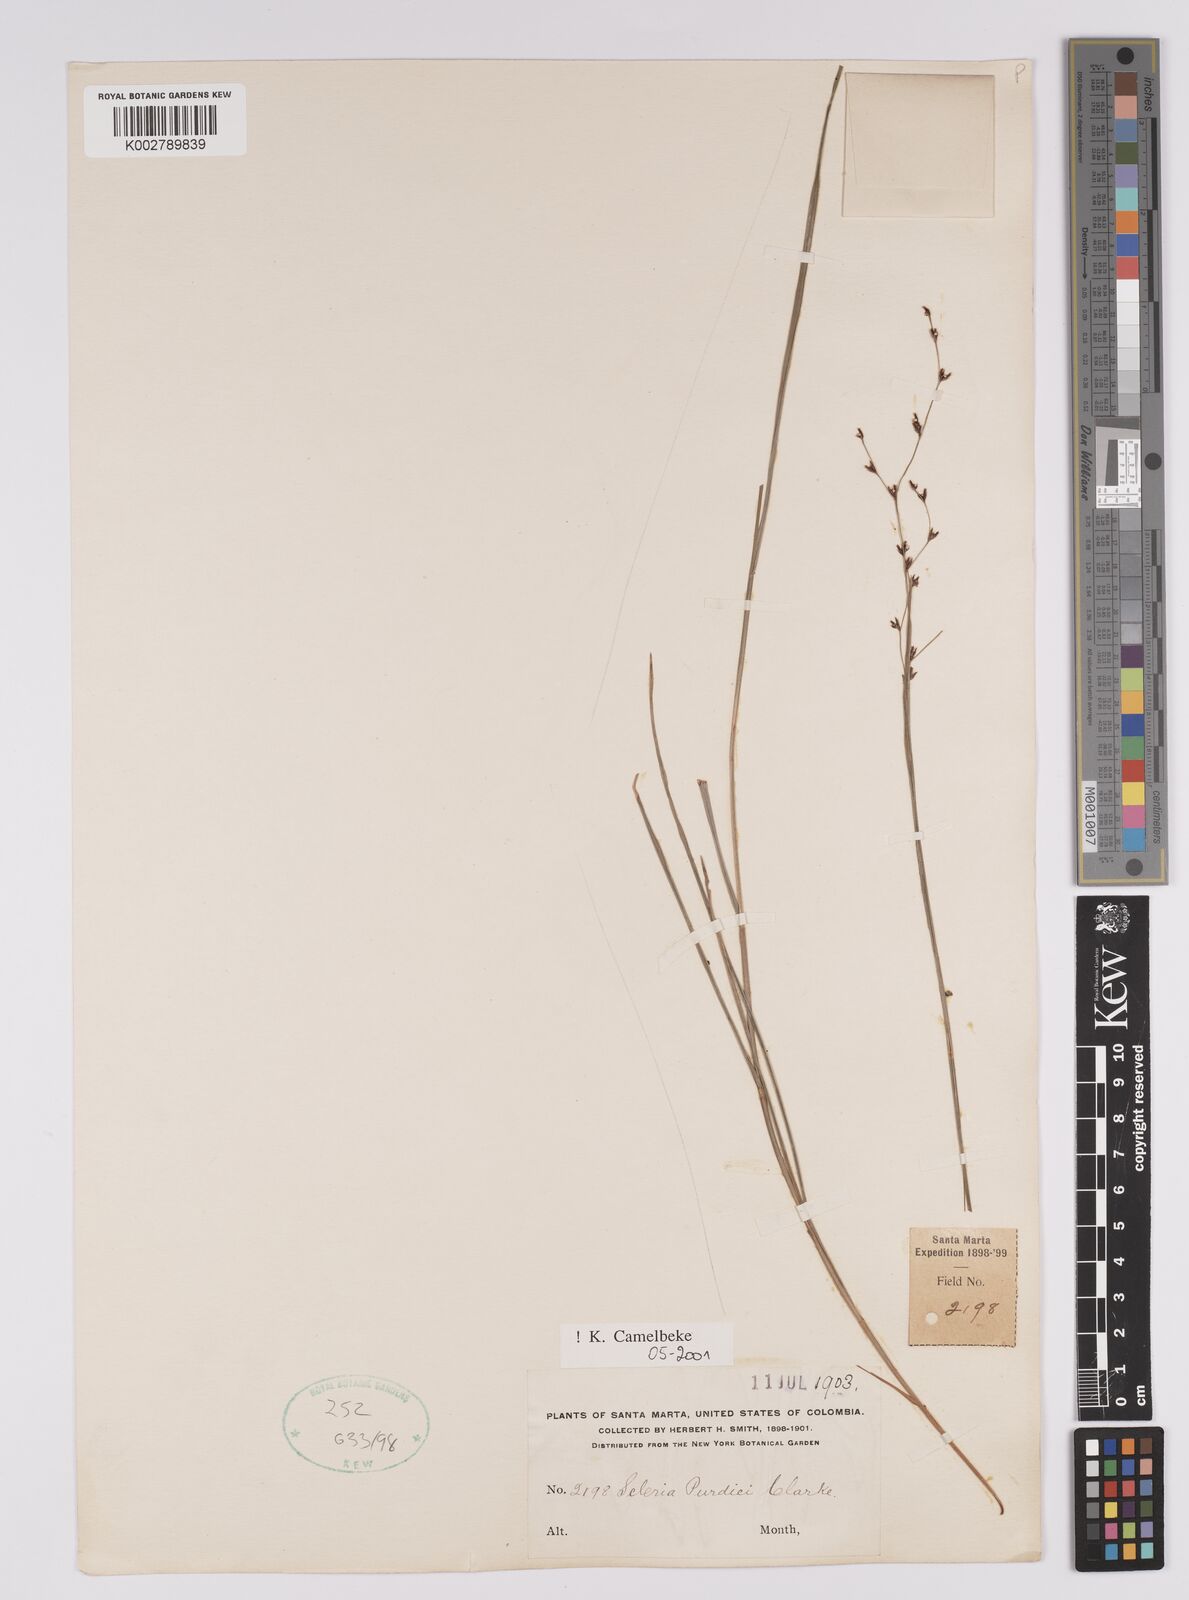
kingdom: Plantae
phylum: Tracheophyta
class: Liliopsida
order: Poales
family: Cyperaceae
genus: Scleria
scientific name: Scleria purdiei
